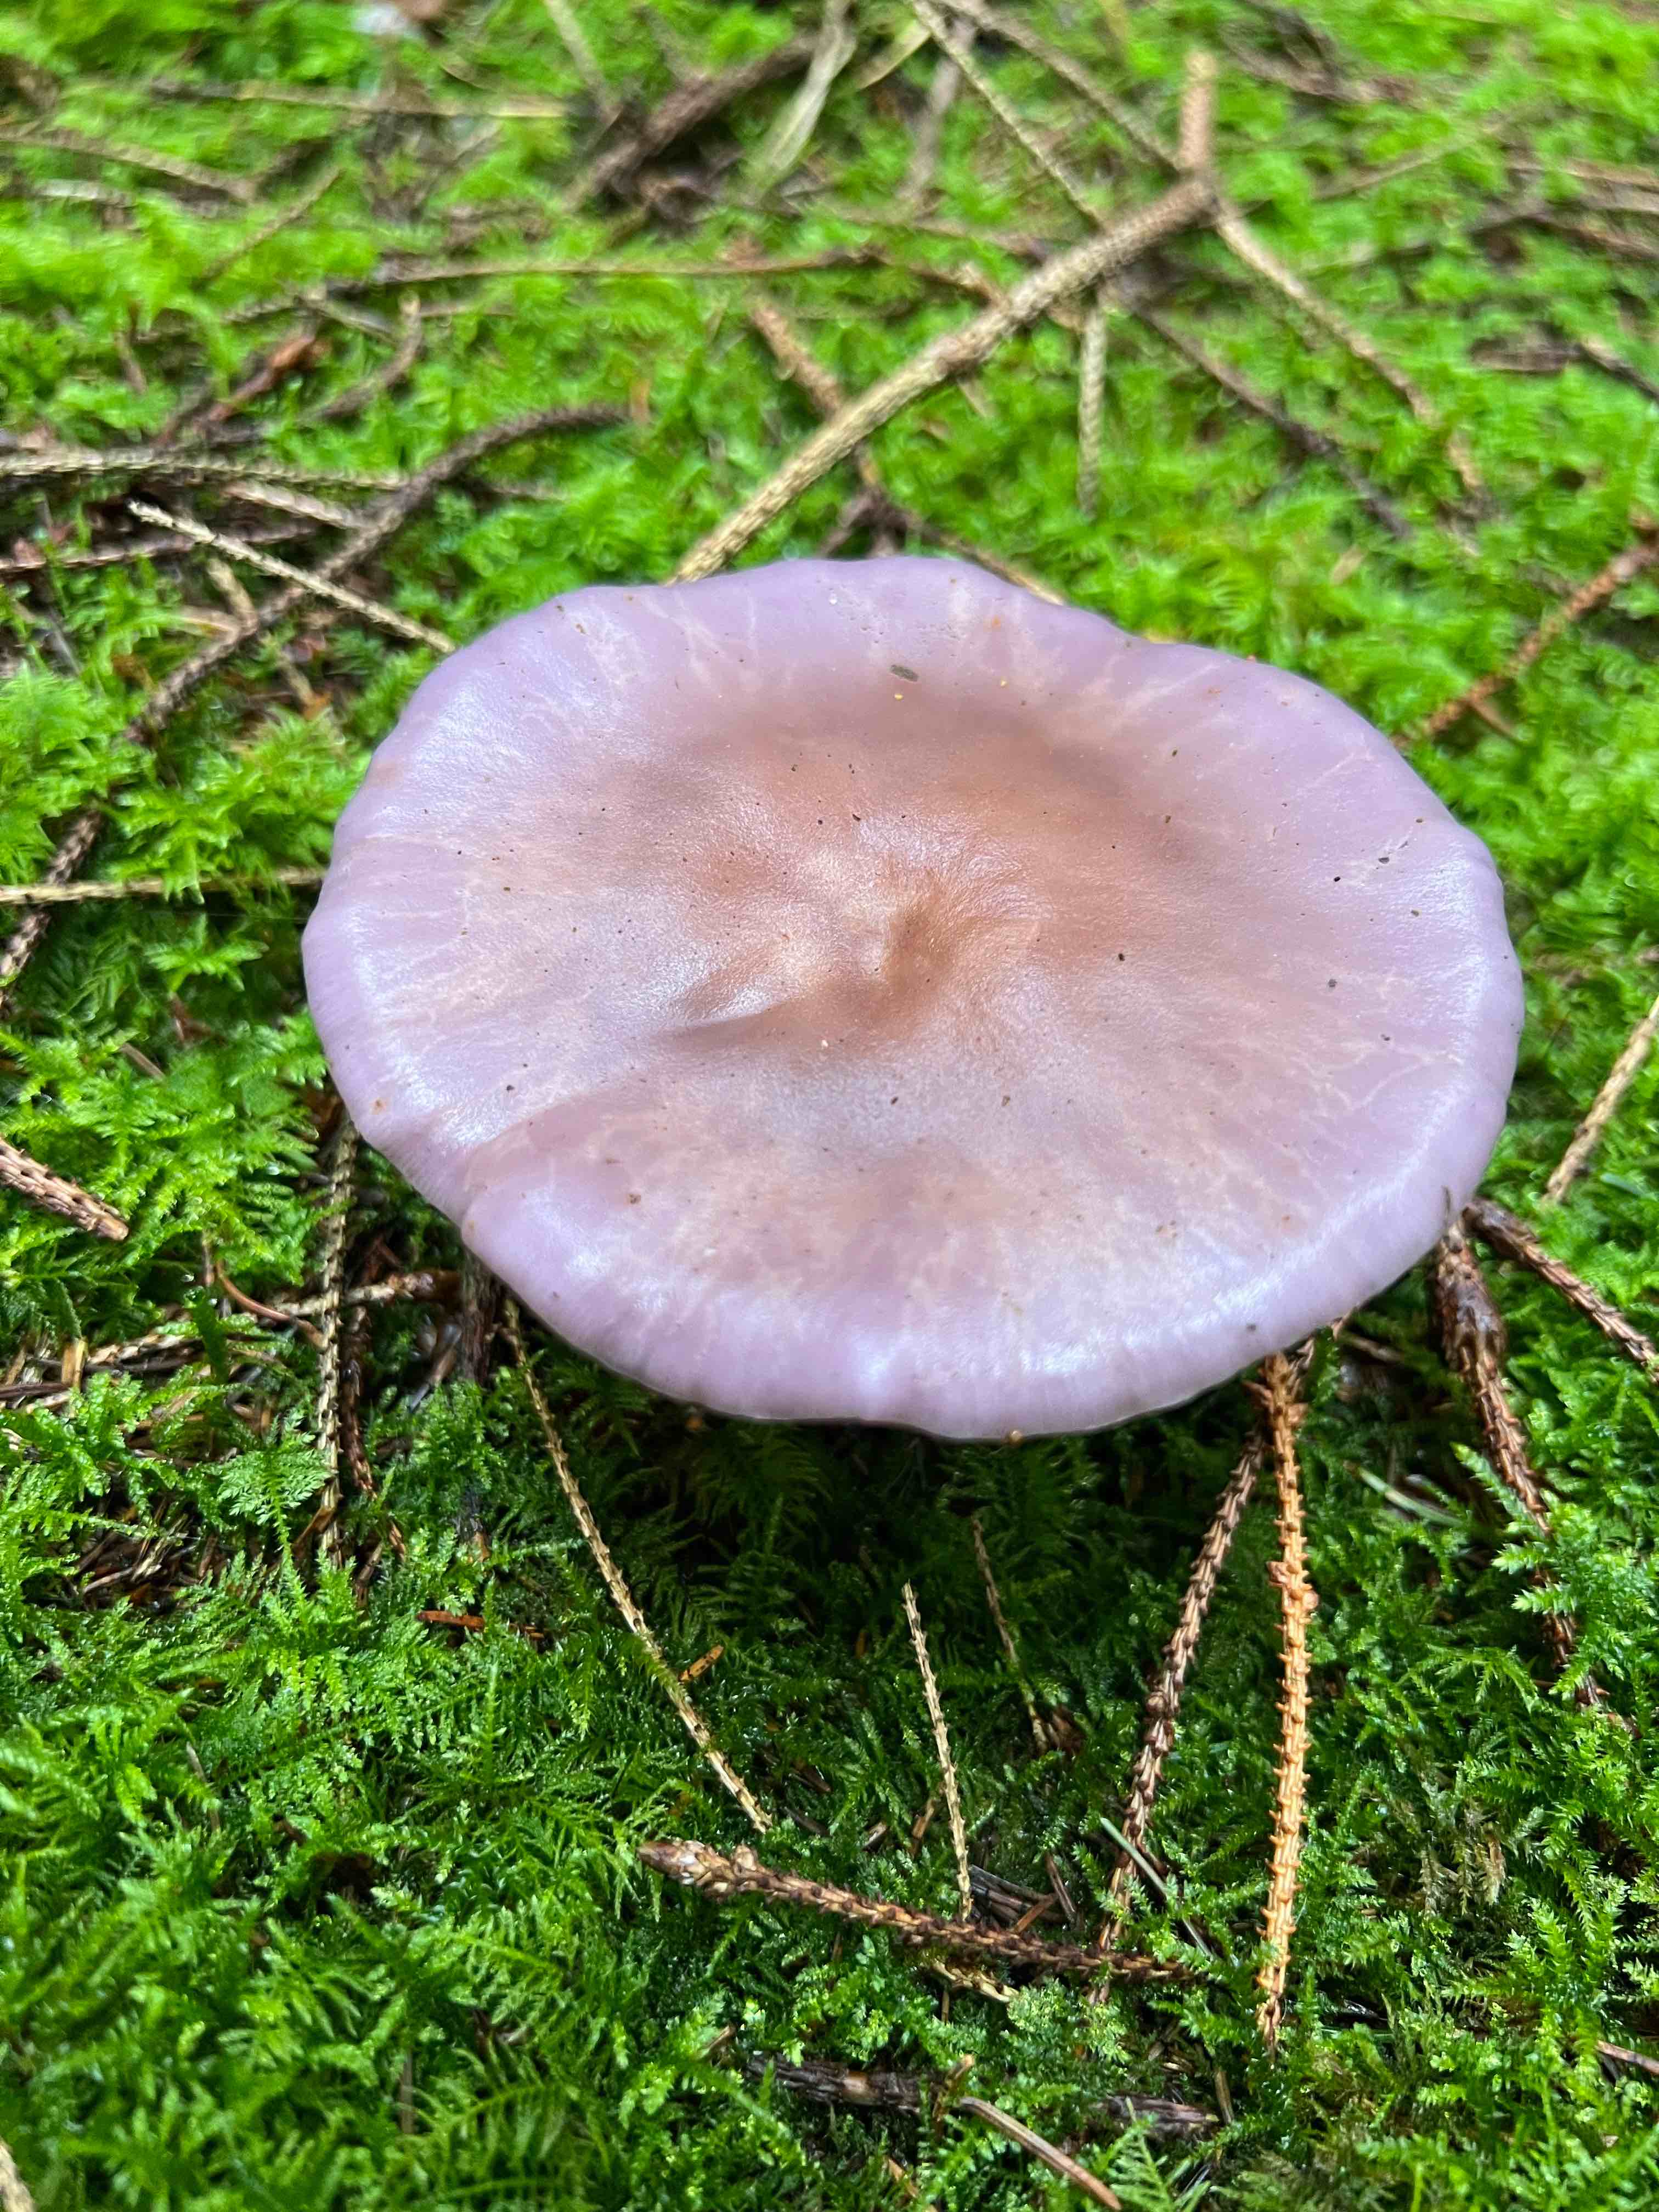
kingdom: Fungi
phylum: Basidiomycota
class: Agaricomycetes
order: Agaricales
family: Tricholomataceae
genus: Lepista
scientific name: Lepista nuda
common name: violet hekseringshat
